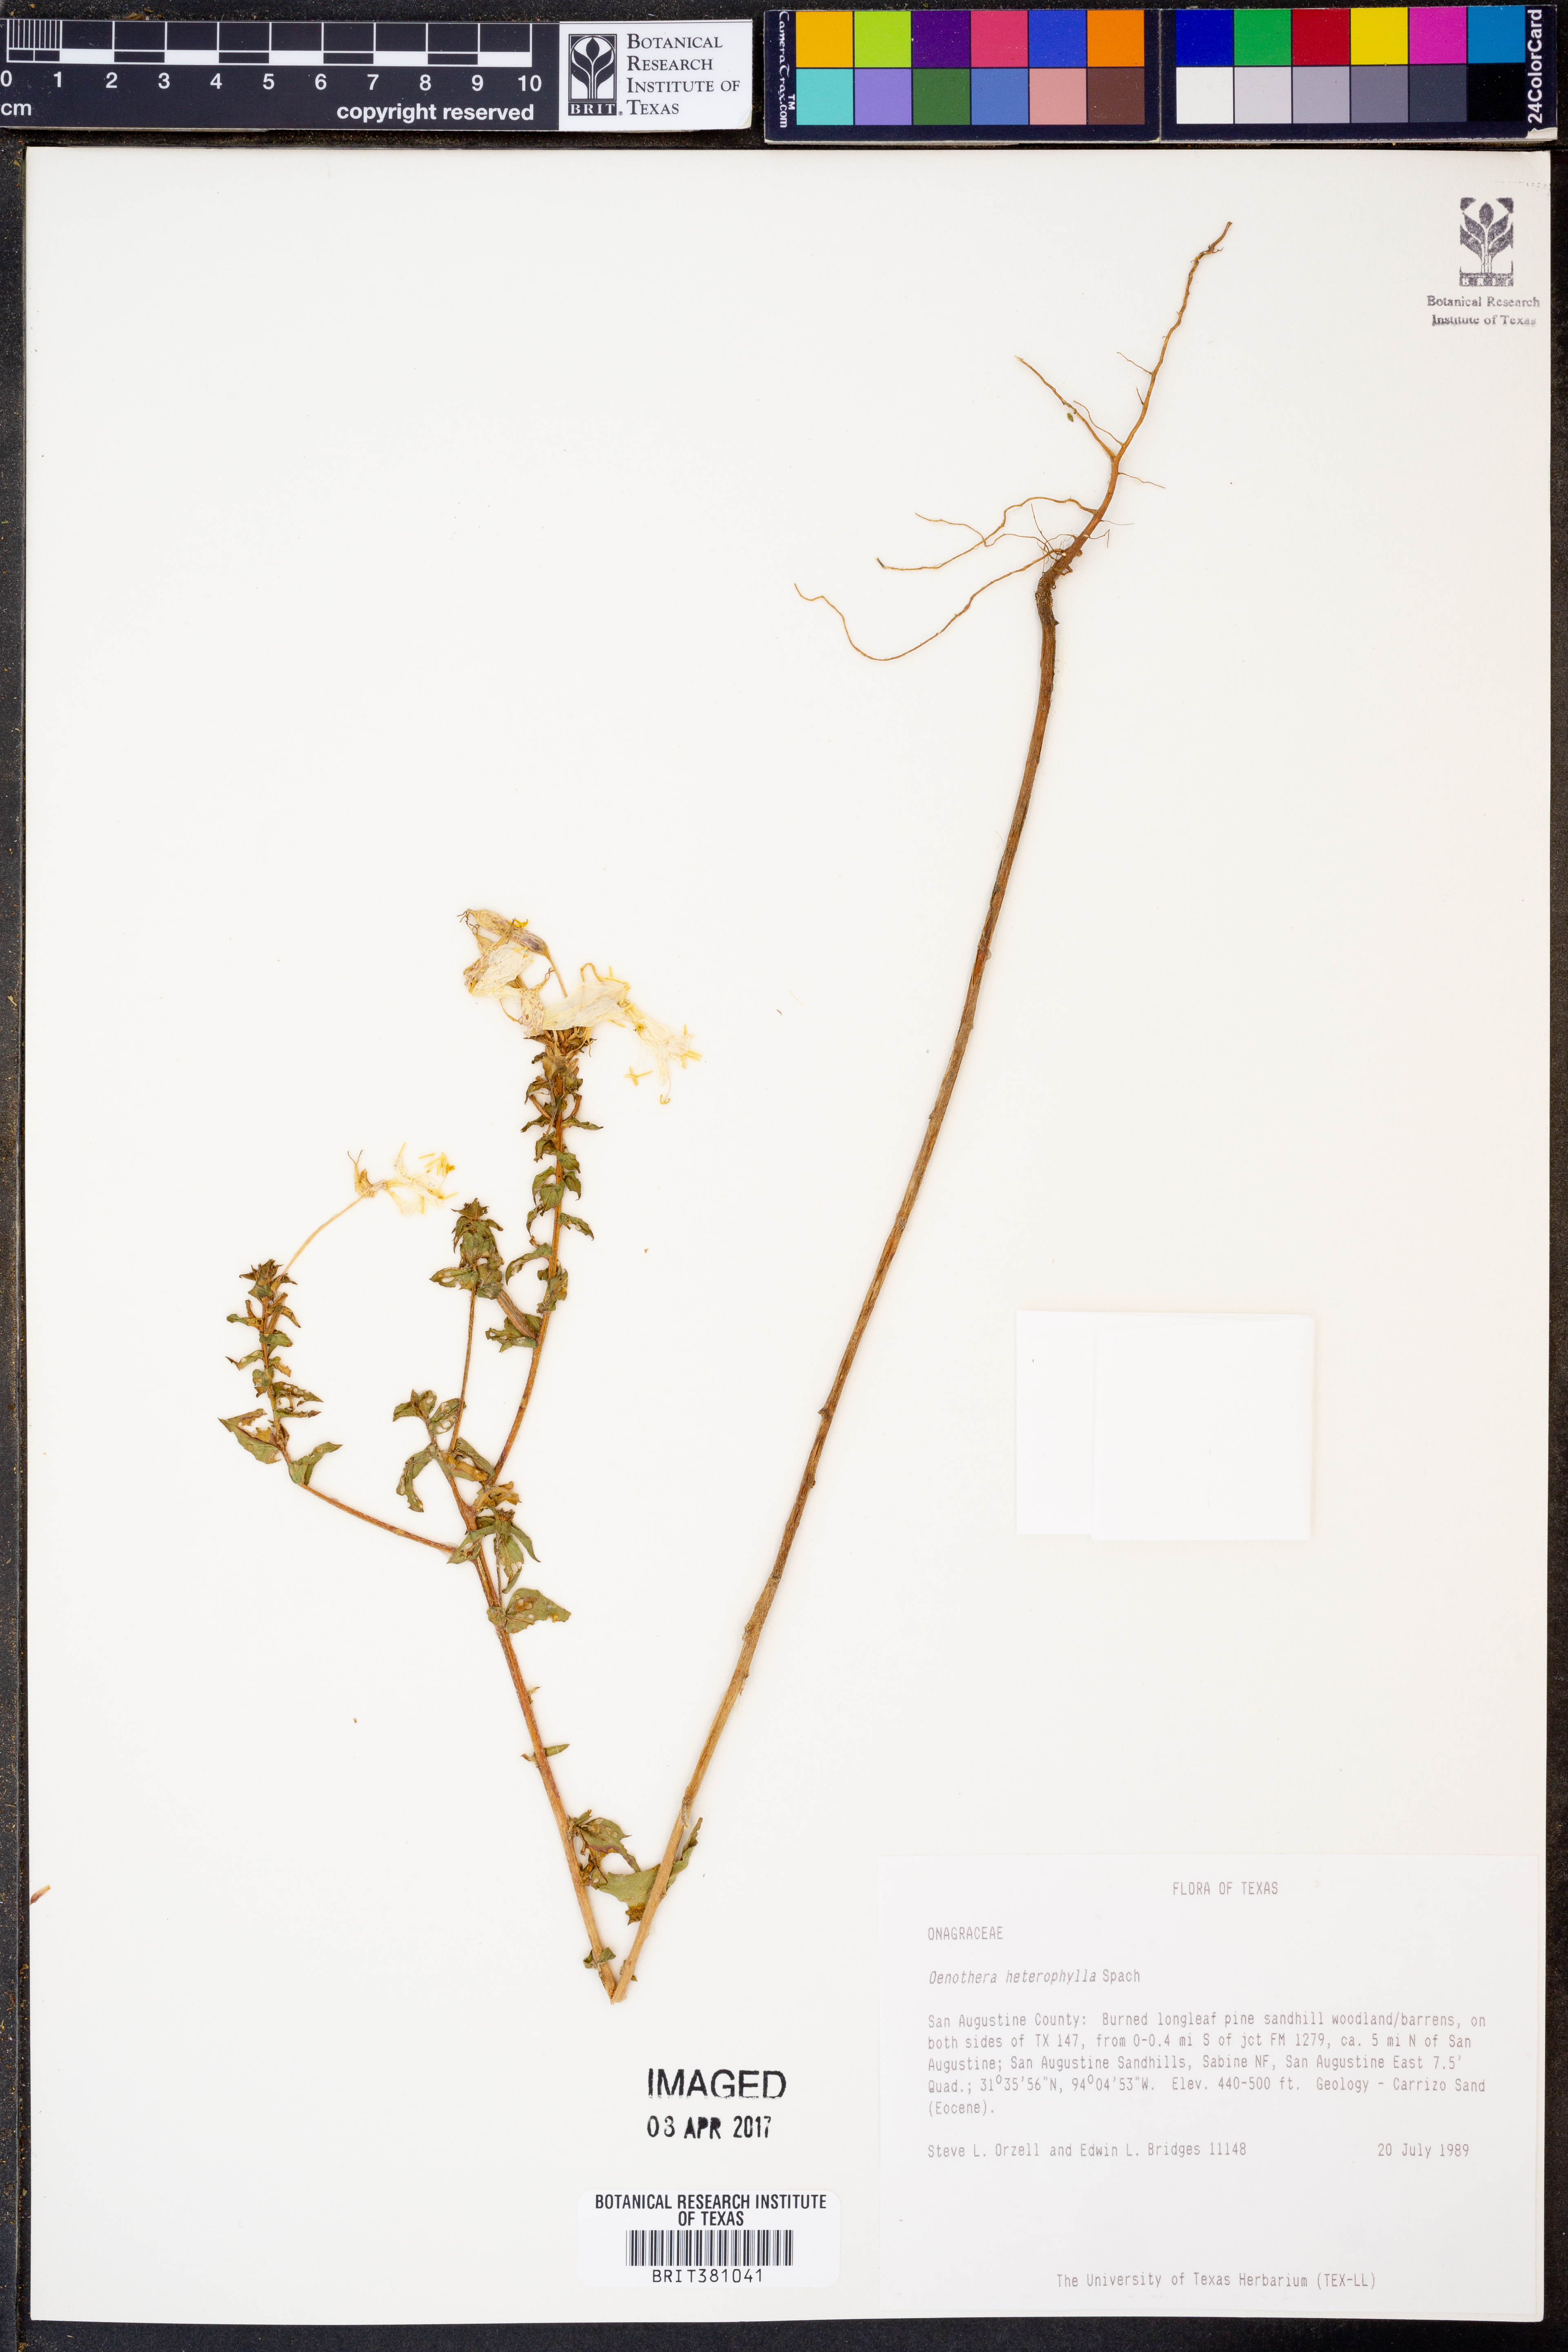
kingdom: Plantae
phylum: Tracheophyta
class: Magnoliopsida
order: Myrtales
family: Onagraceae
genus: Camissonia
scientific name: Camissonia dentata
